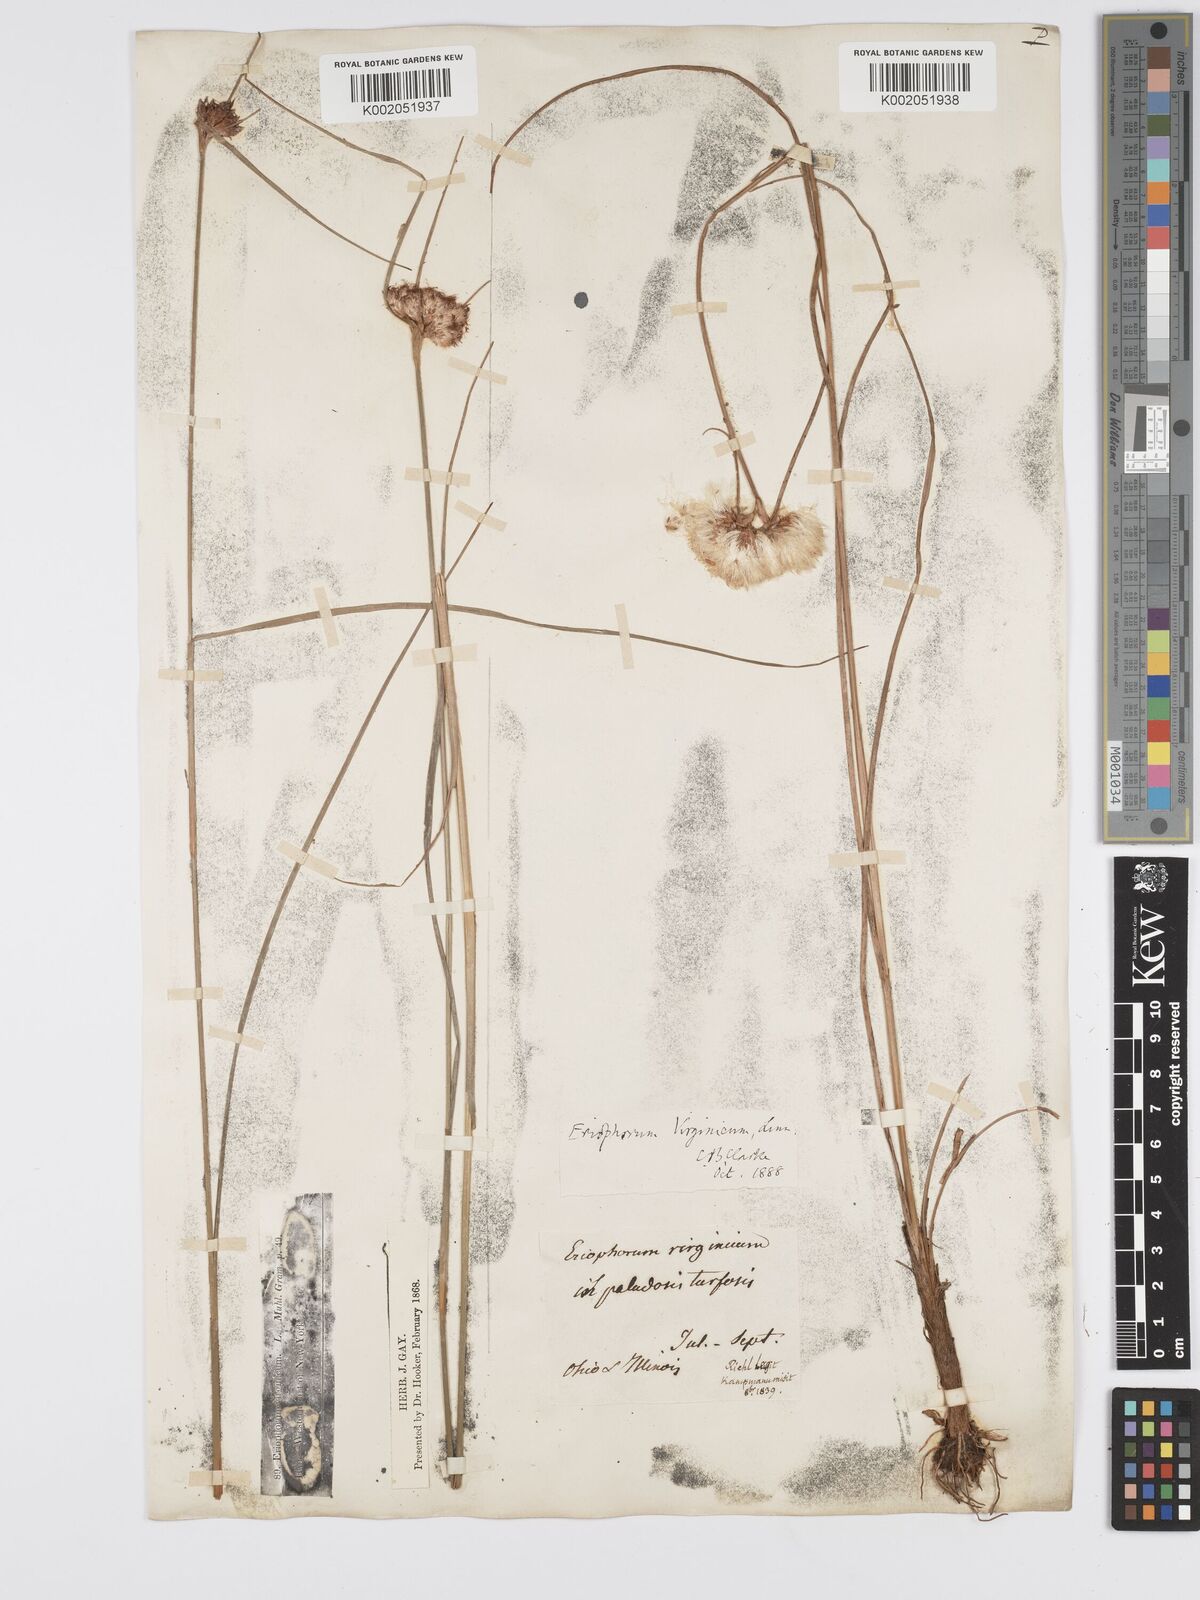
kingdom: Plantae
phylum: Tracheophyta
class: Liliopsida
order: Poales
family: Cyperaceae
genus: Eriophorum
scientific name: Eriophorum virginicum
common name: Tawny cottongrass
